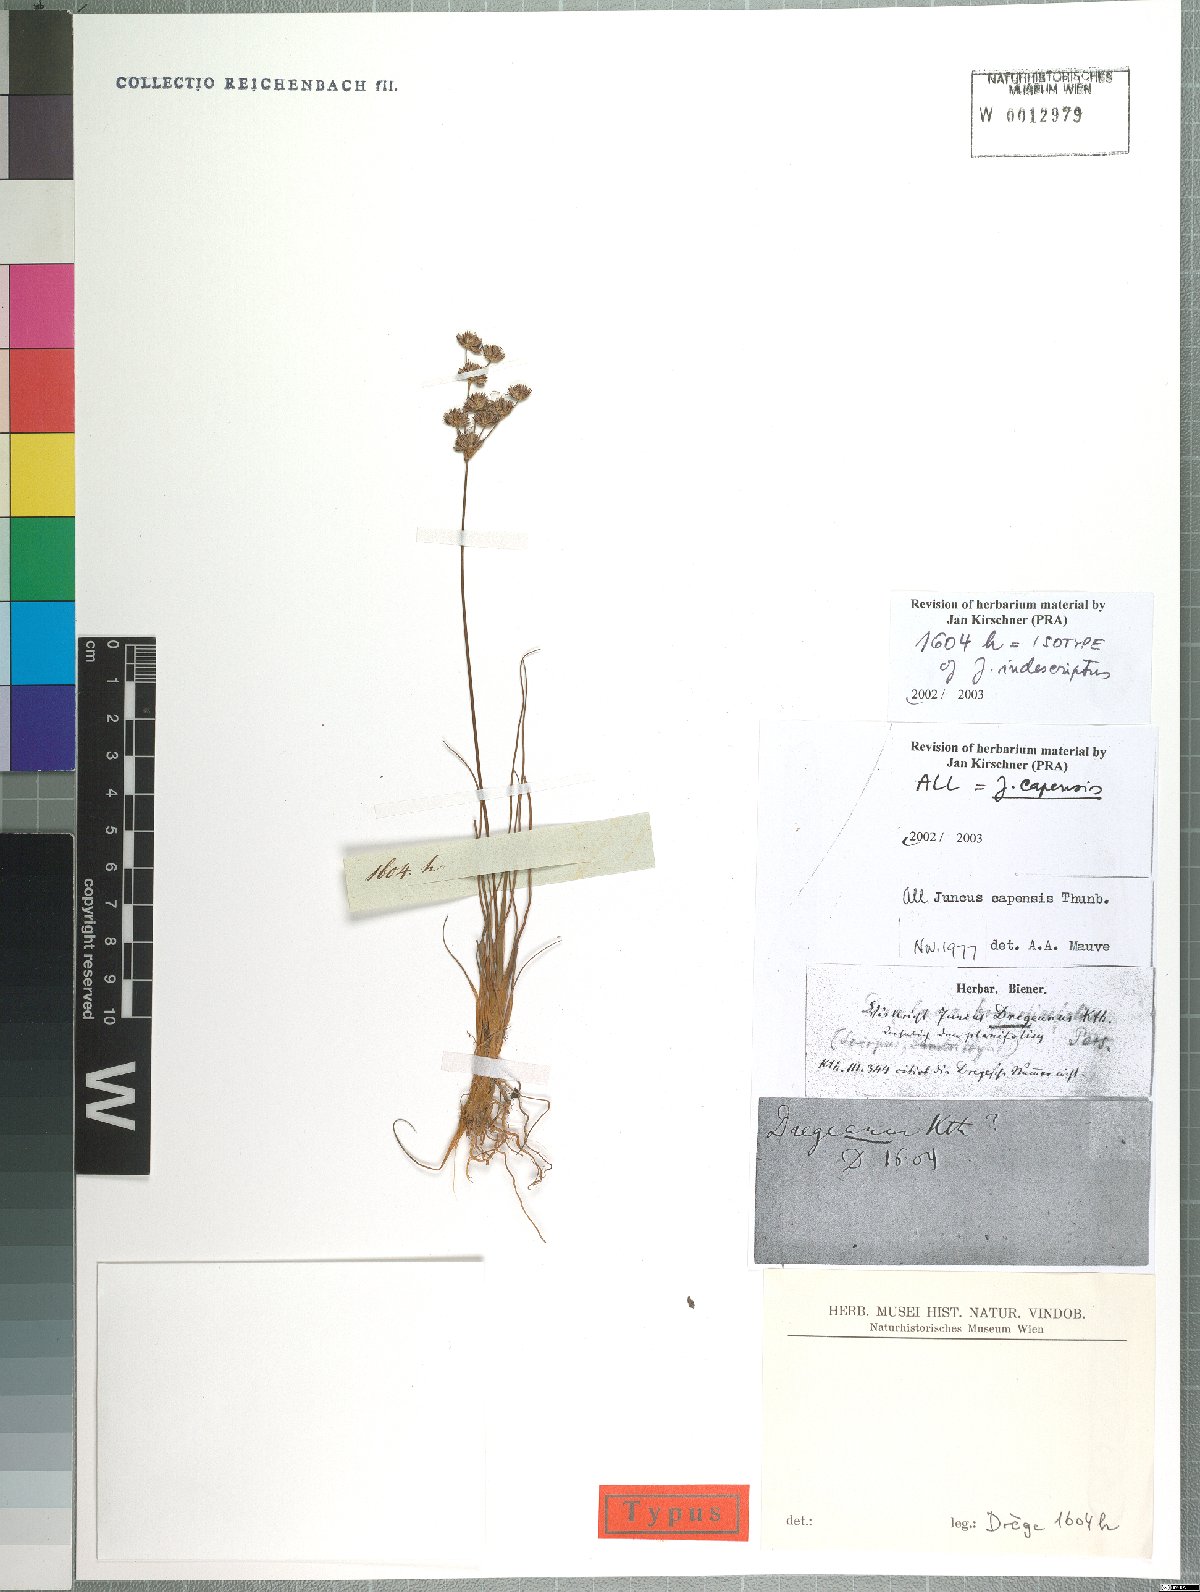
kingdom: Plantae
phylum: Tracheophyta
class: Liliopsida
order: Poales
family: Juncaceae
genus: Juncus
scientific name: Juncus capensis
